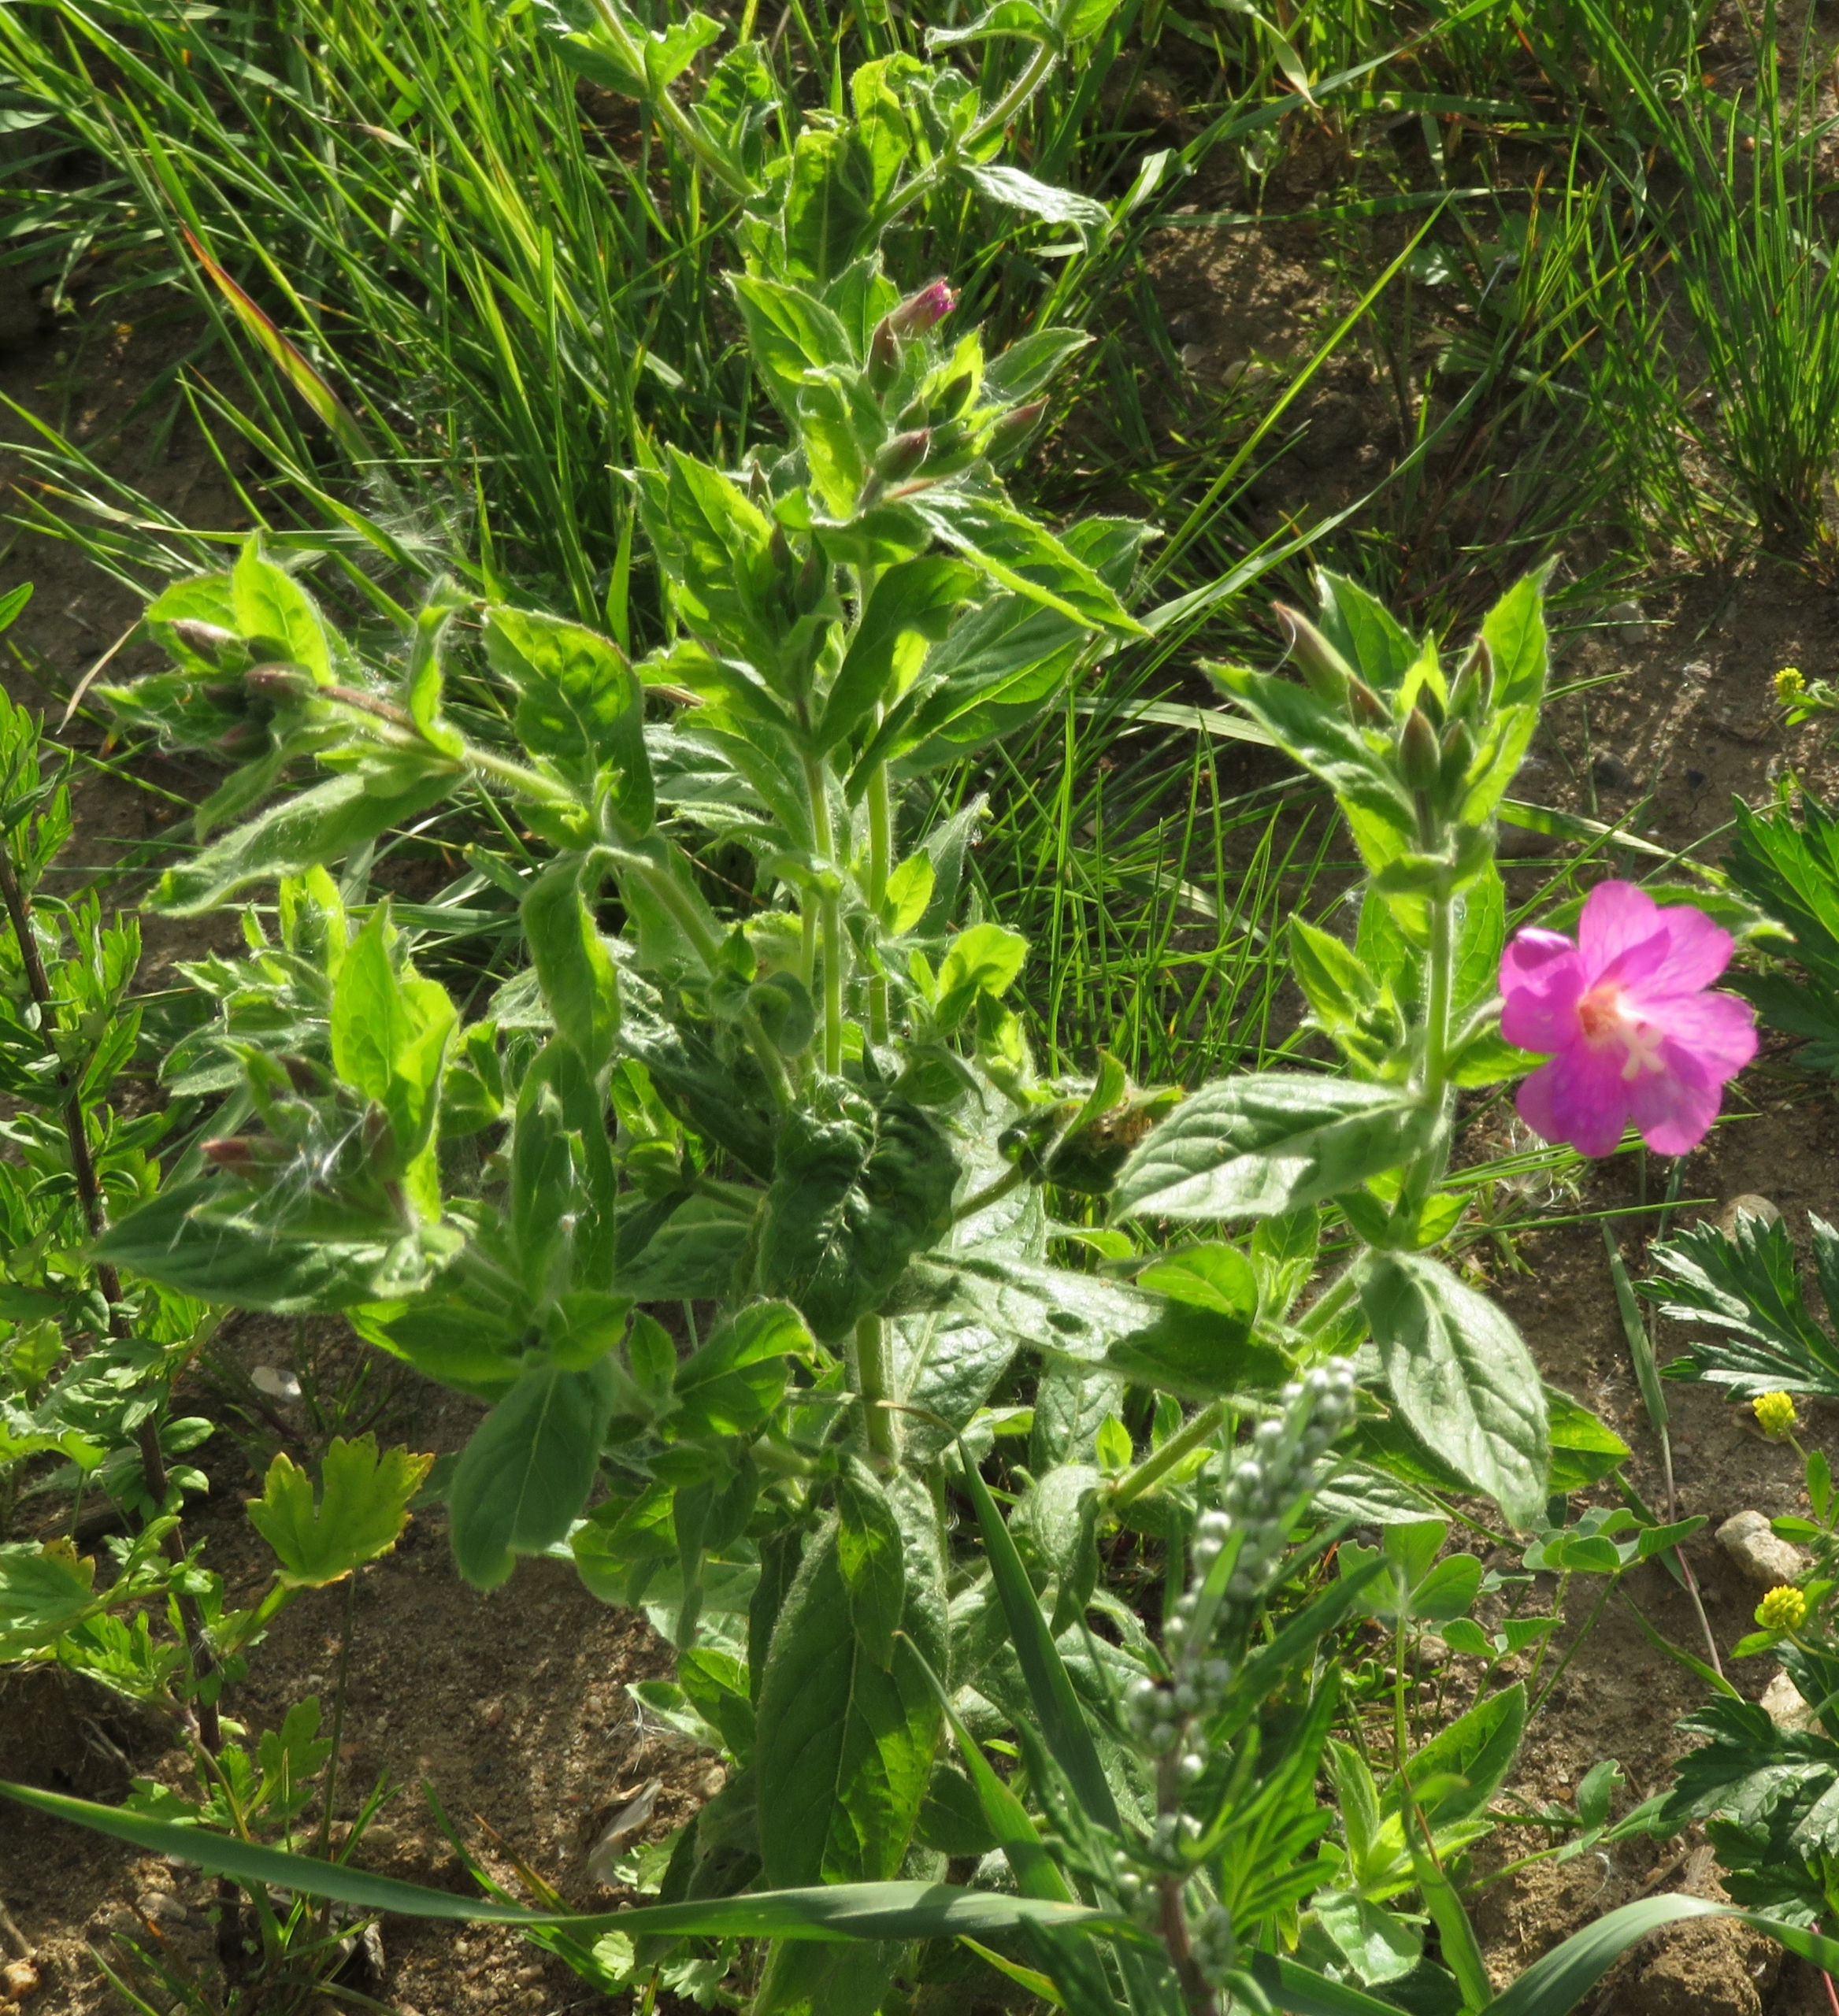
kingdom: Plantae
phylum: Tracheophyta
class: Magnoliopsida
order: Myrtales
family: Onagraceae
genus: Epilobium
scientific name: Epilobium hirsutum
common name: Lådden dueurt
